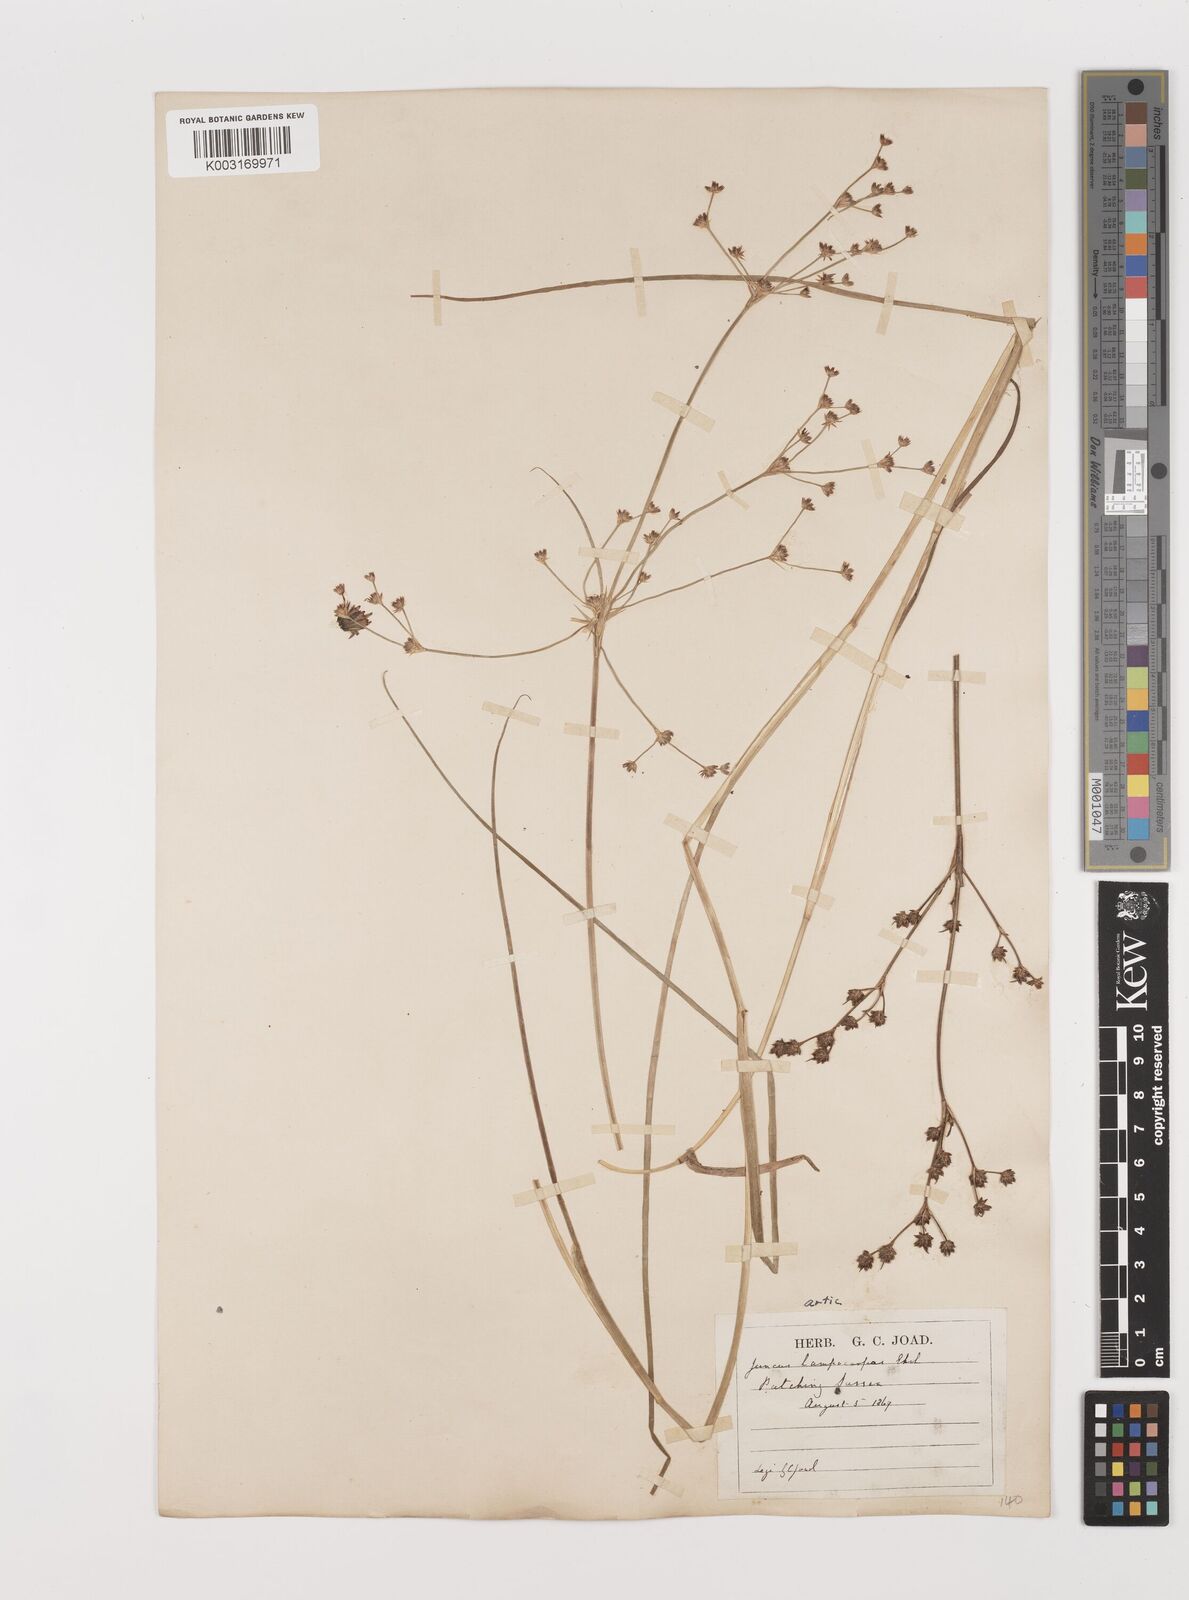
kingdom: Plantae
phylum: Tracheophyta
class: Liliopsida
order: Poales
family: Juncaceae
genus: Juncus
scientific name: Juncus articulatus
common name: Jointed rush
